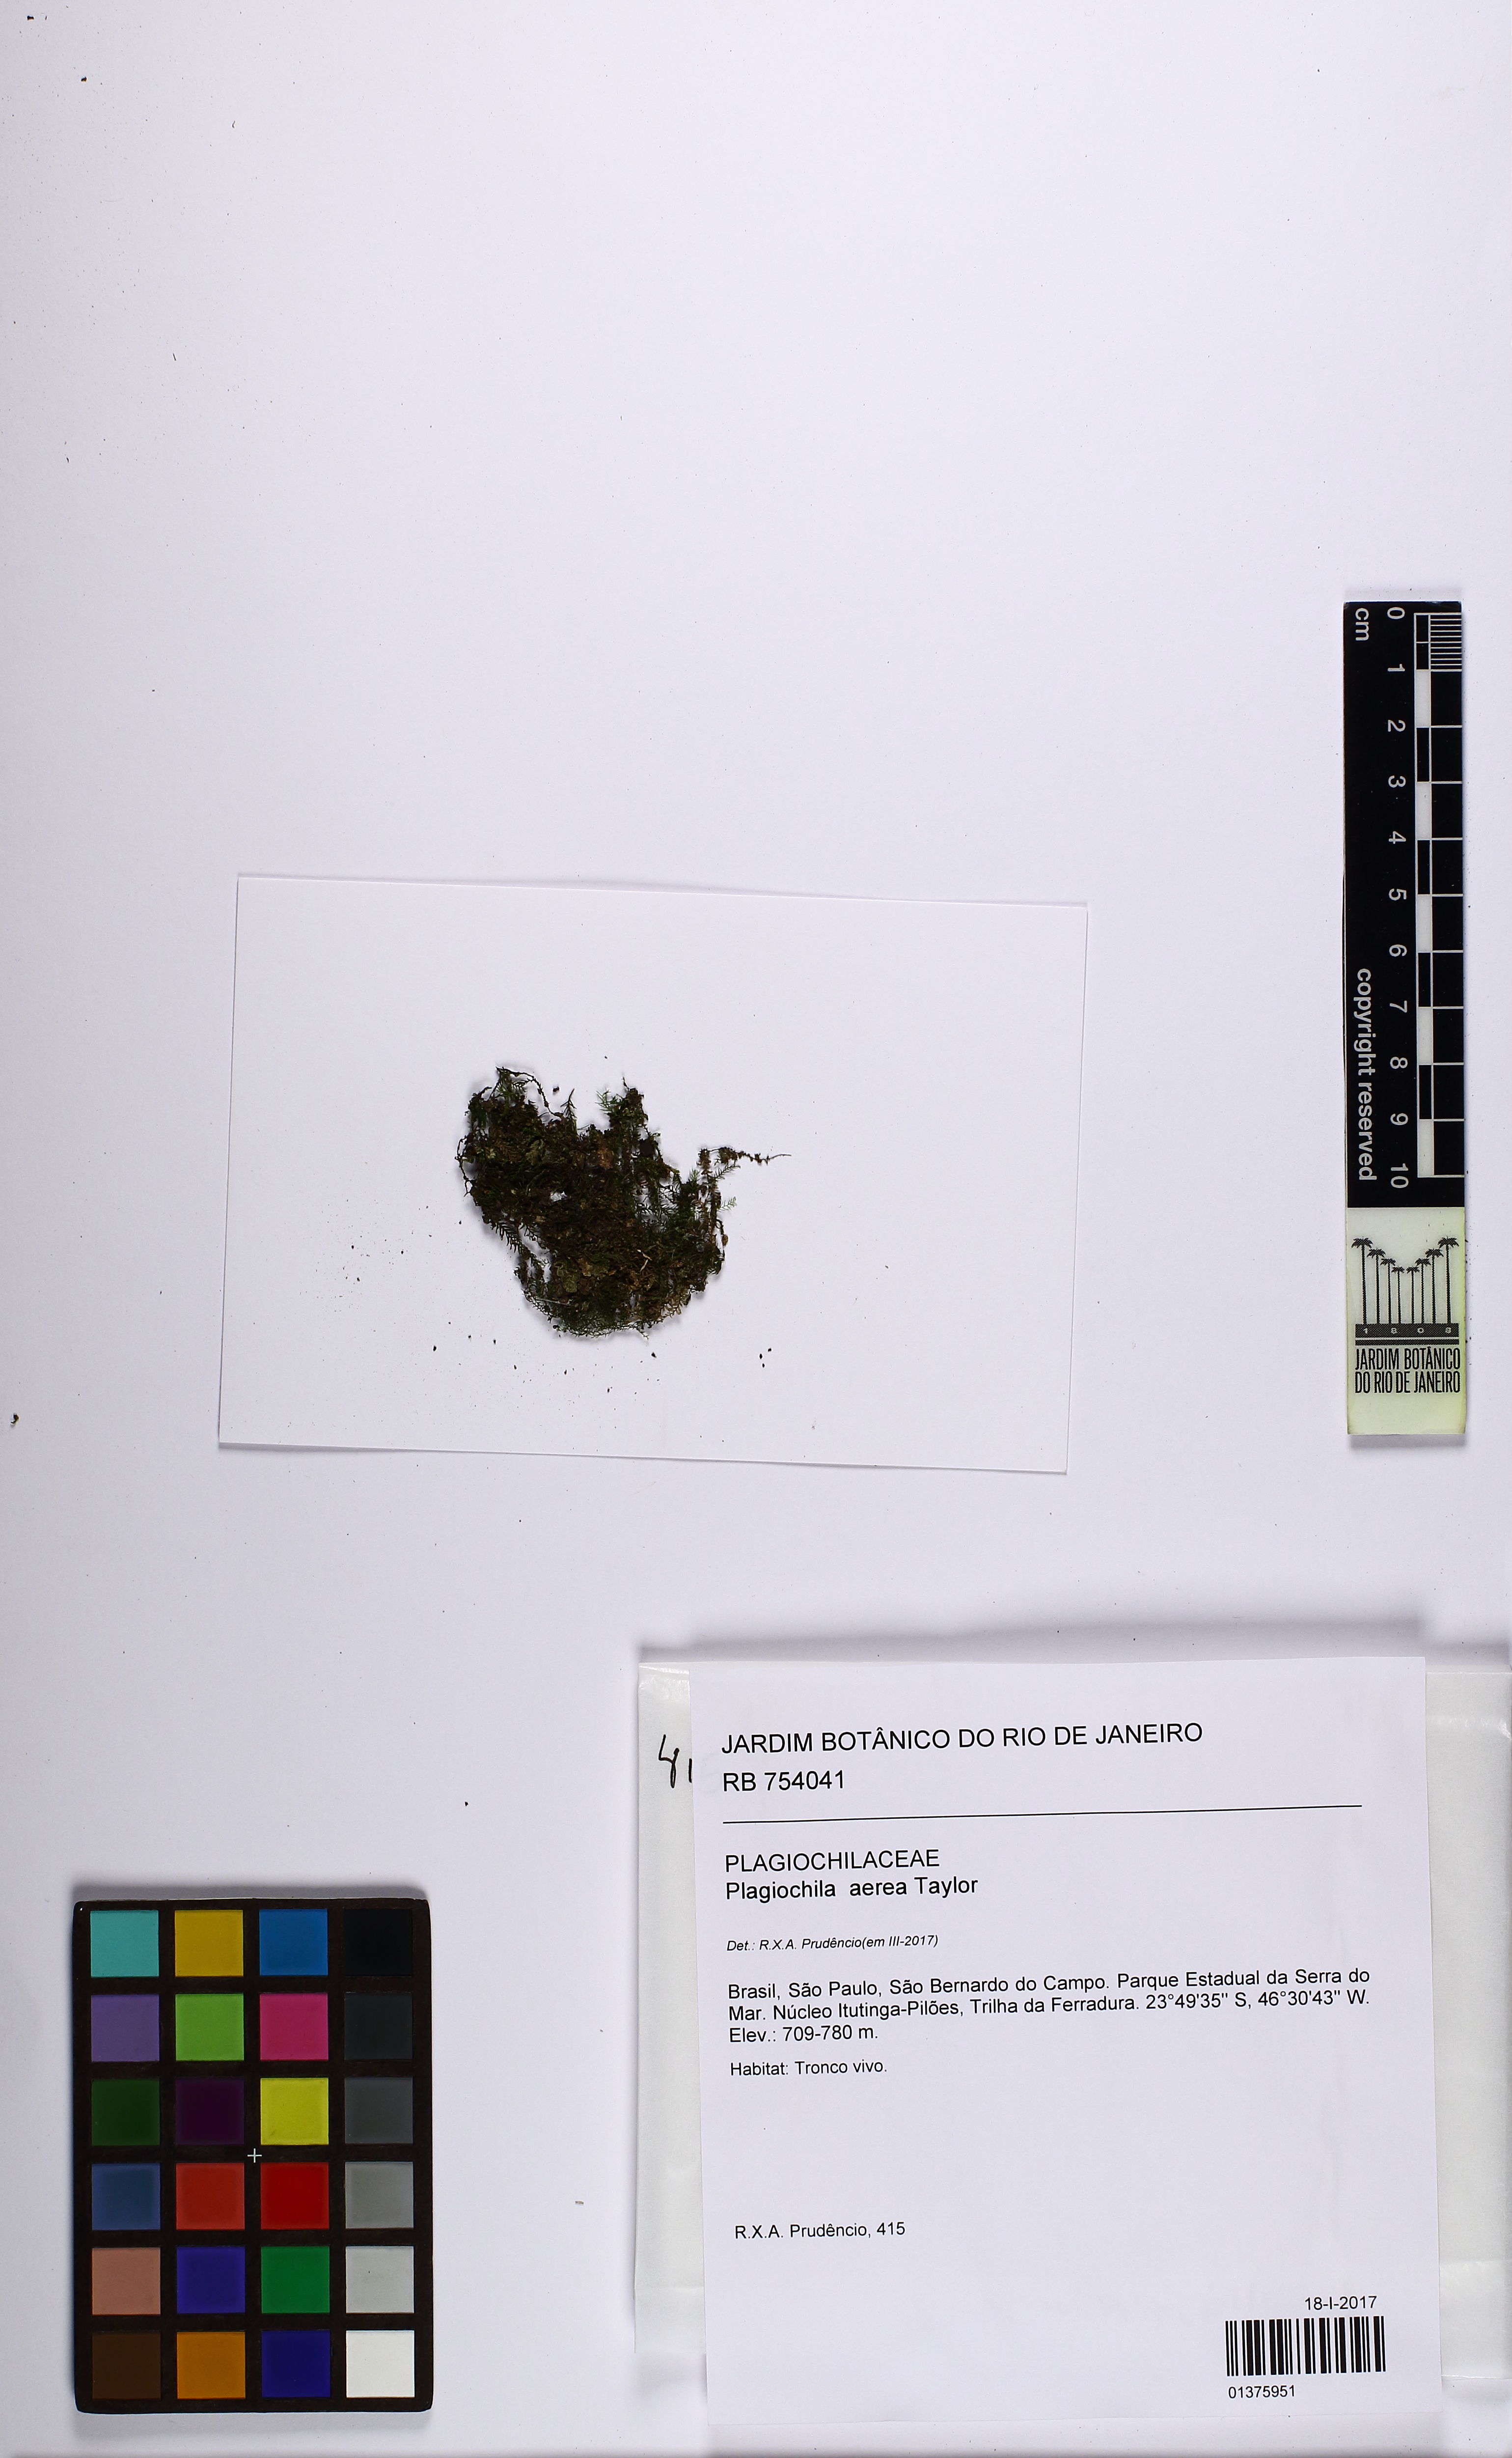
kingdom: Plantae
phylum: Marchantiophyta
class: Jungermanniopsida
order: Jungermanniales
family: Plagiochilaceae
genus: Plagiochila
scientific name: Plagiochila aerea
